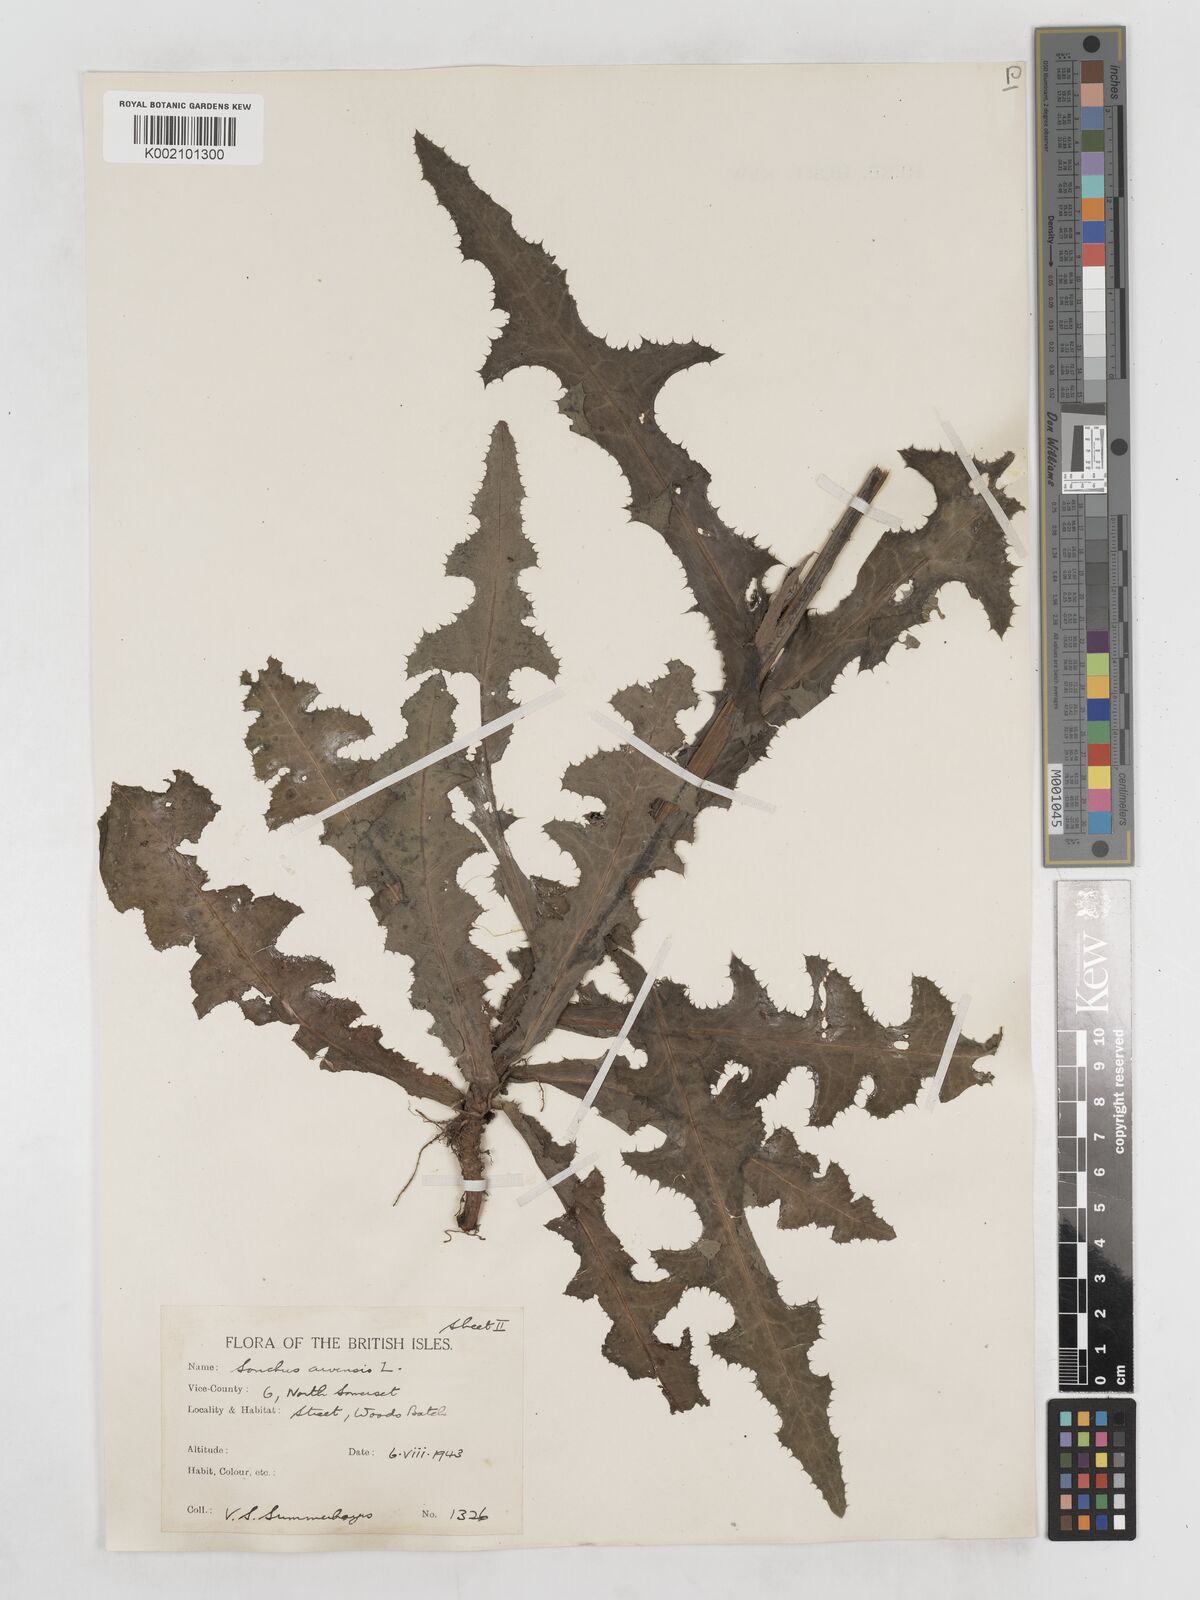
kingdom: Plantae
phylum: Tracheophyta
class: Magnoliopsida
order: Asterales
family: Asteraceae
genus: Sonchus
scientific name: Sonchus arvensis
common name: Perennial sow-thistle
